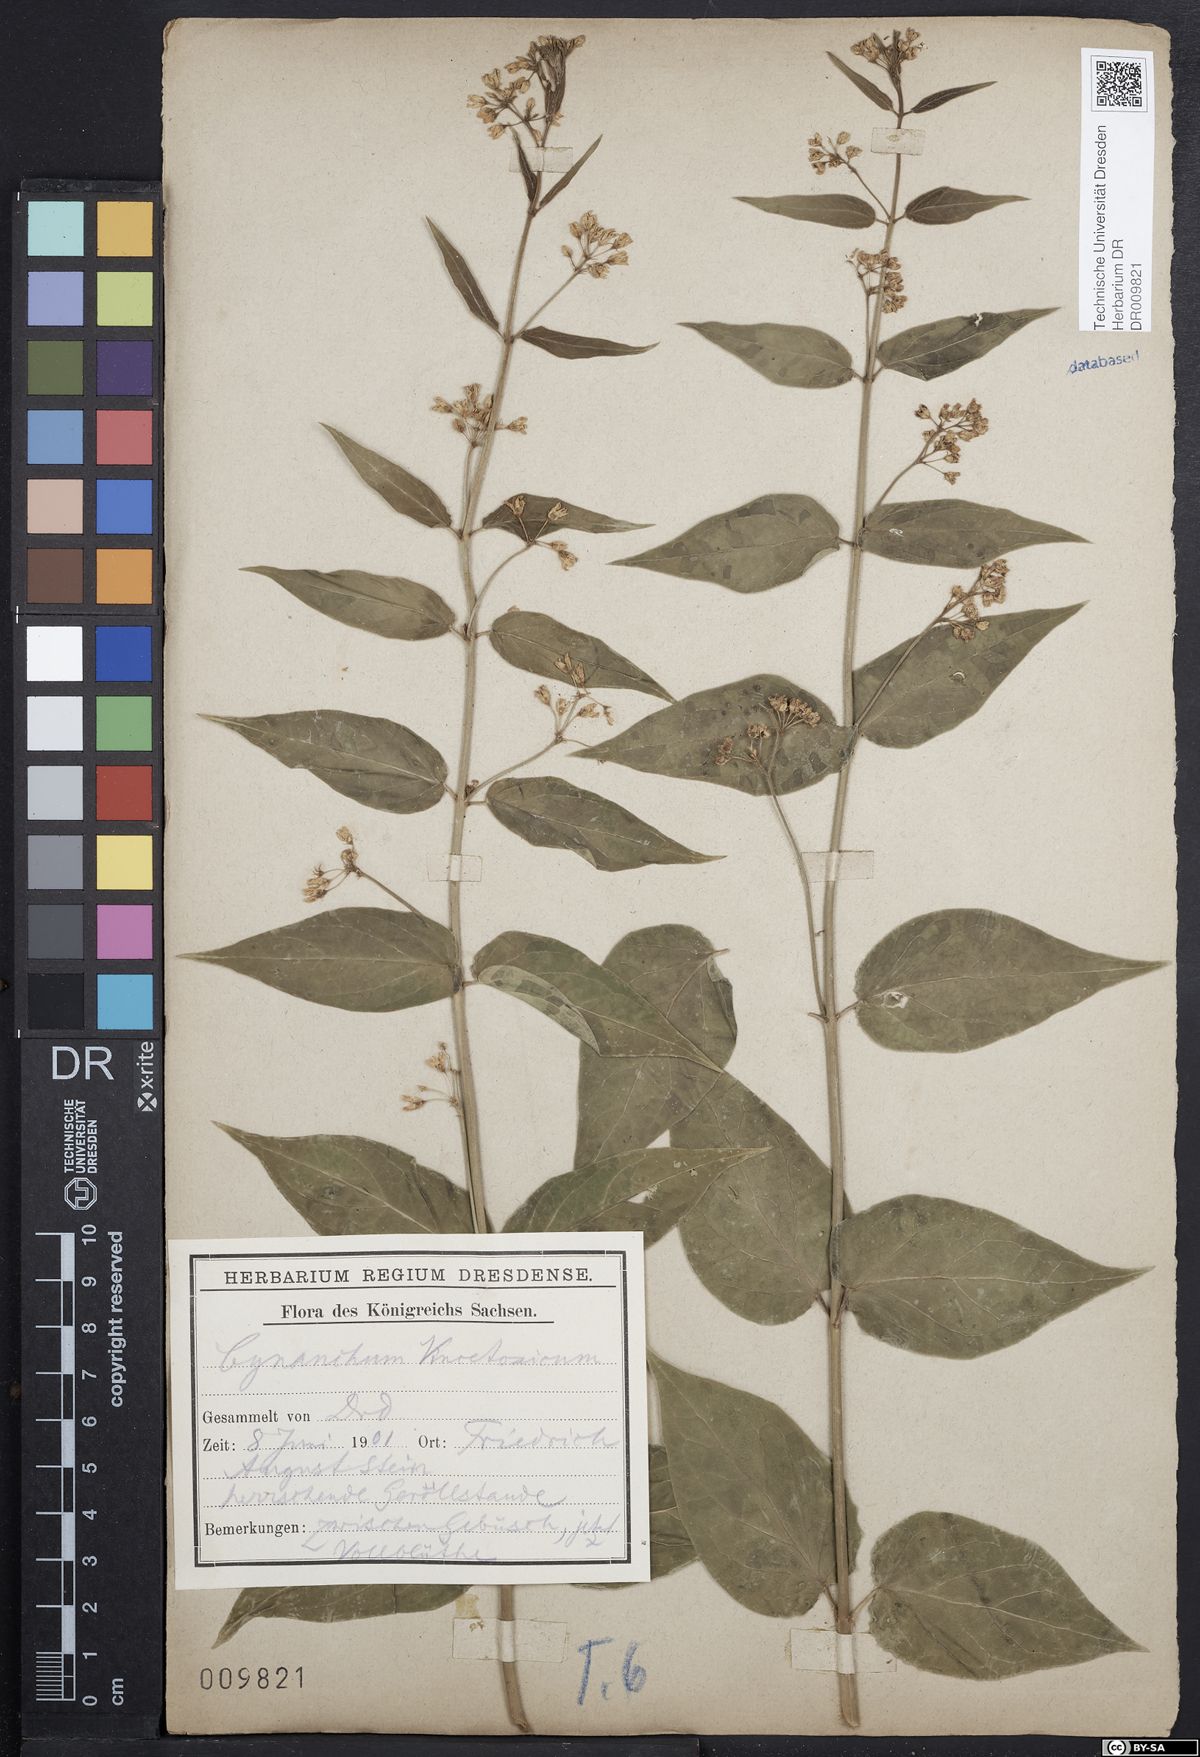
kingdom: Plantae
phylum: Tracheophyta
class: Magnoliopsida
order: Gentianales
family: Apocynaceae
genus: Vincetoxicum
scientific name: Vincetoxicum hirundinaria
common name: White swallowwort
